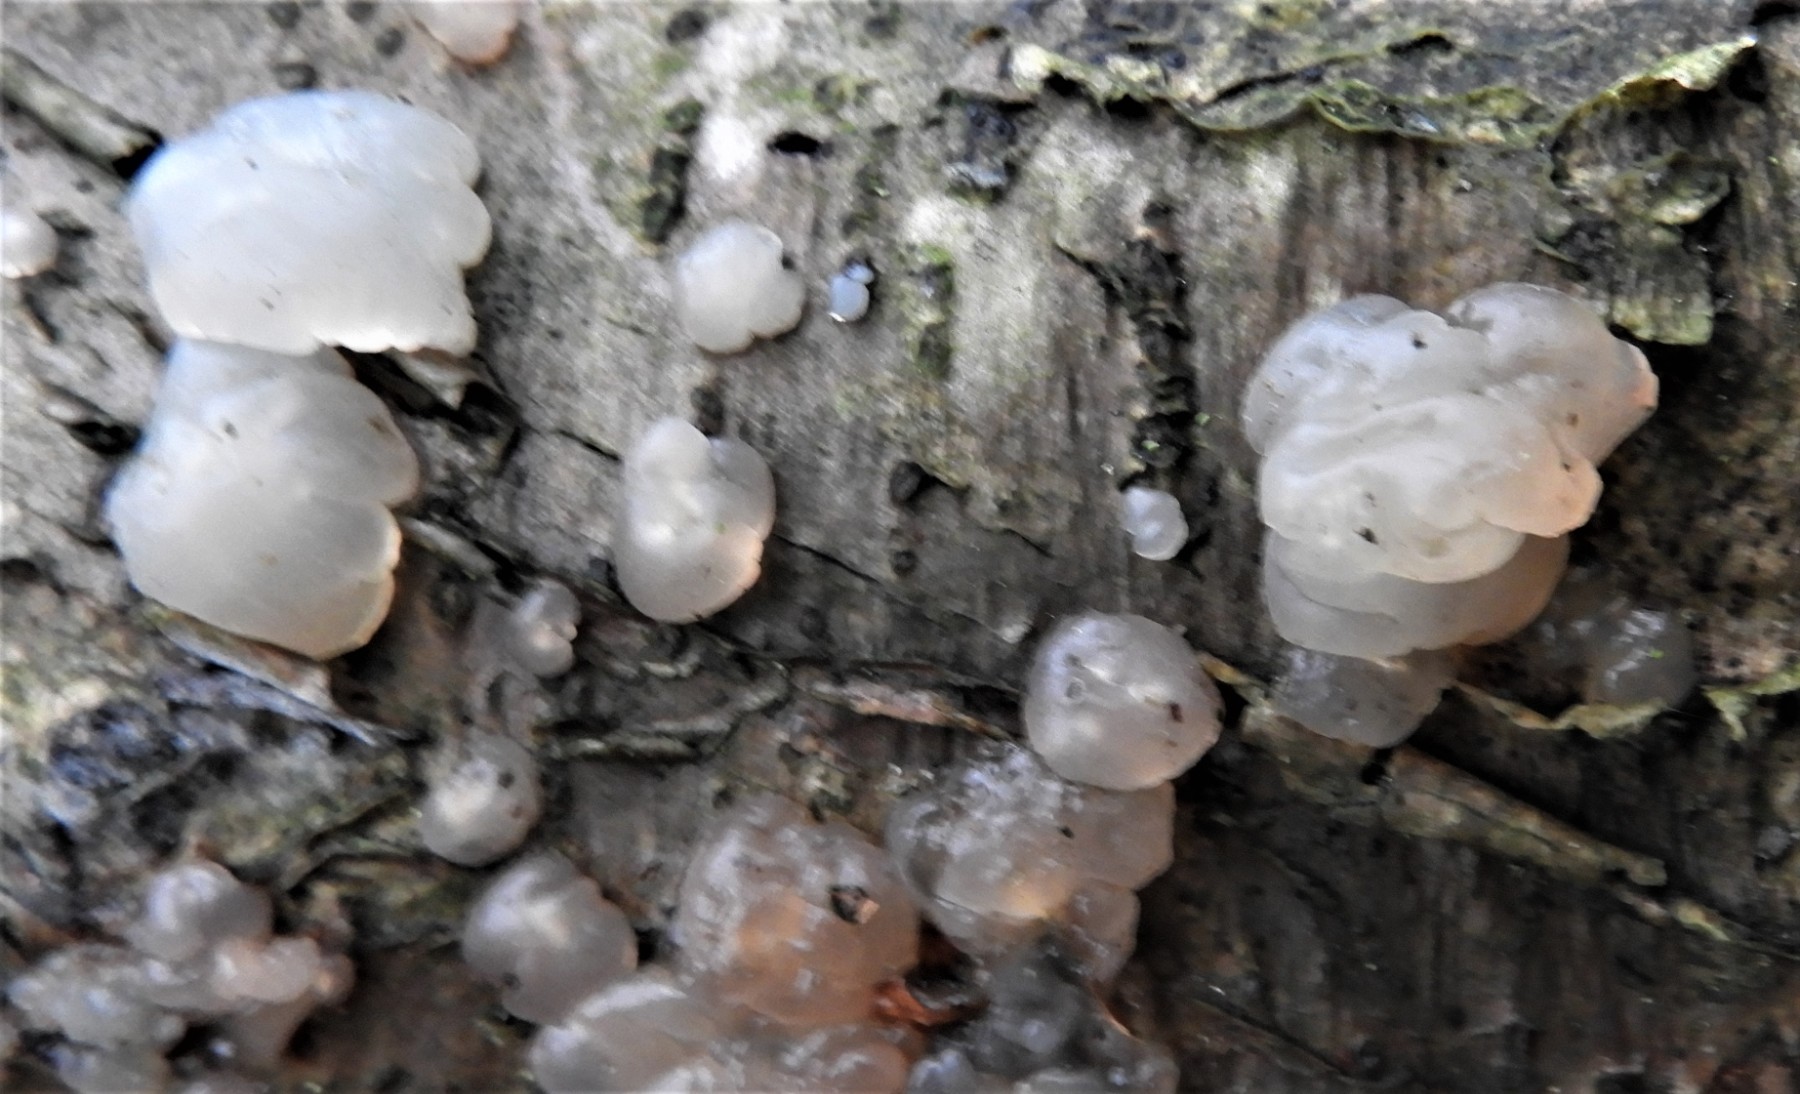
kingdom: Fungi
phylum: Basidiomycota
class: Agaricomycetes
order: Auriculariales
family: Hyaloriaceae
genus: Myxarium
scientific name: Myxarium nucleatum
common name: klar bævretop
